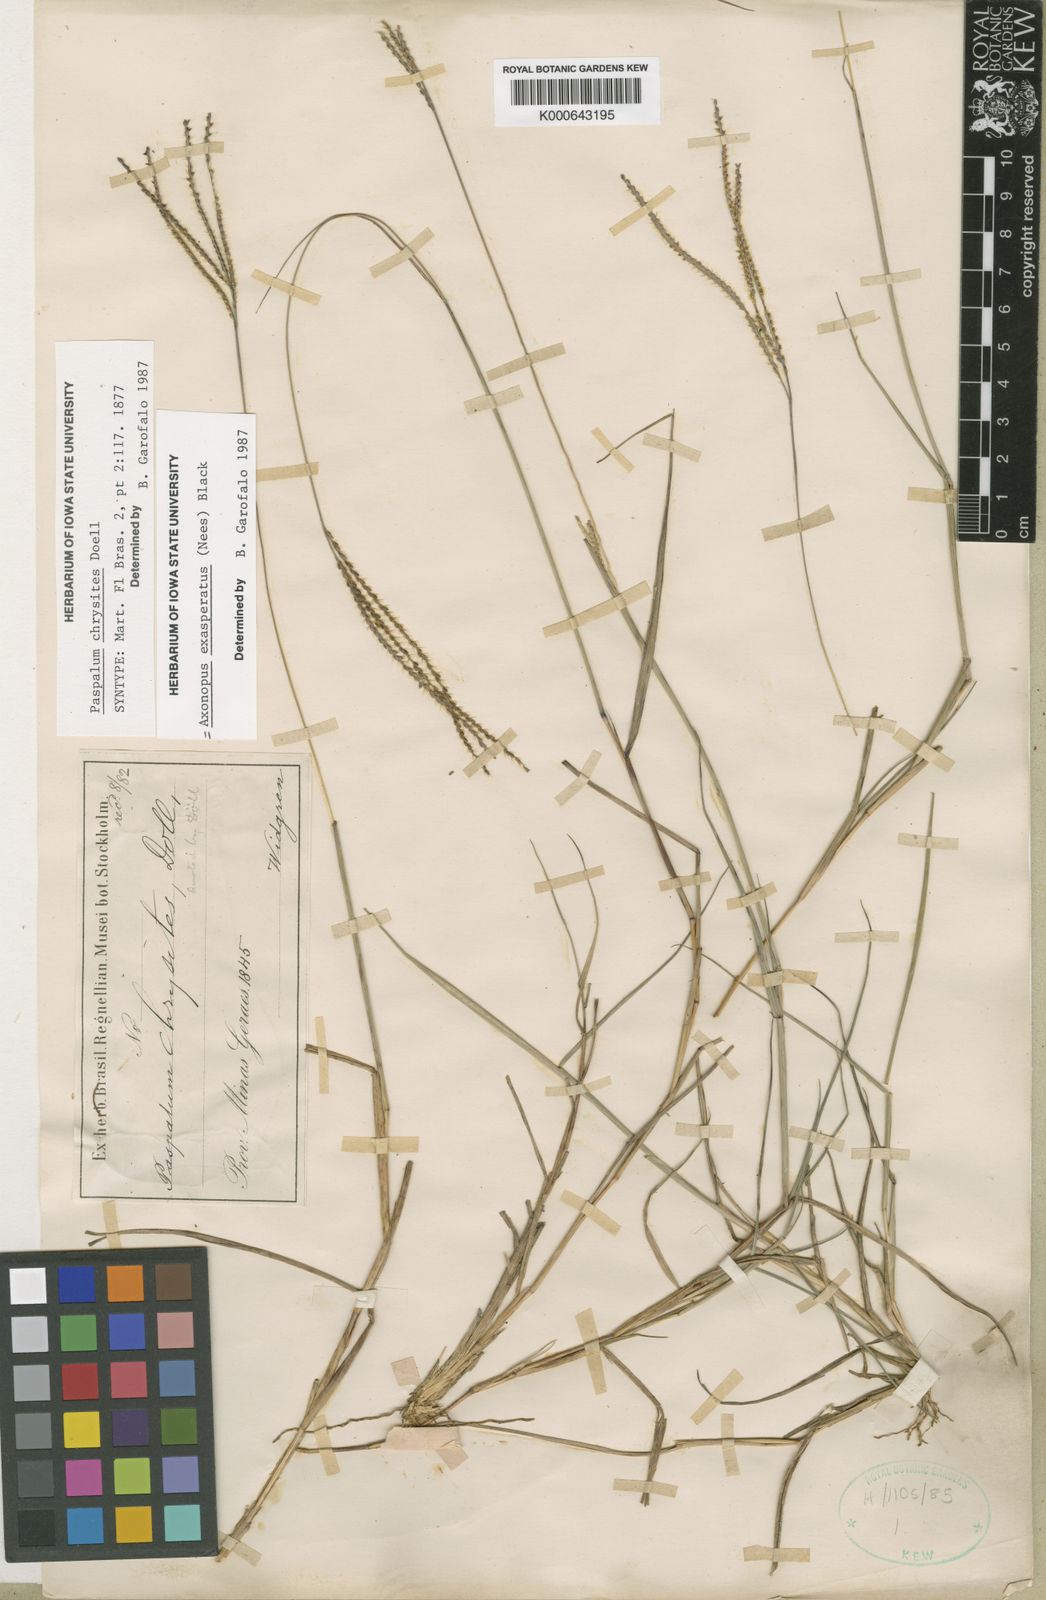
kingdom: Plantae
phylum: Tracheophyta
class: Liliopsida
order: Poales
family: Poaceae
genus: Axonopus
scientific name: Axonopus aureus
